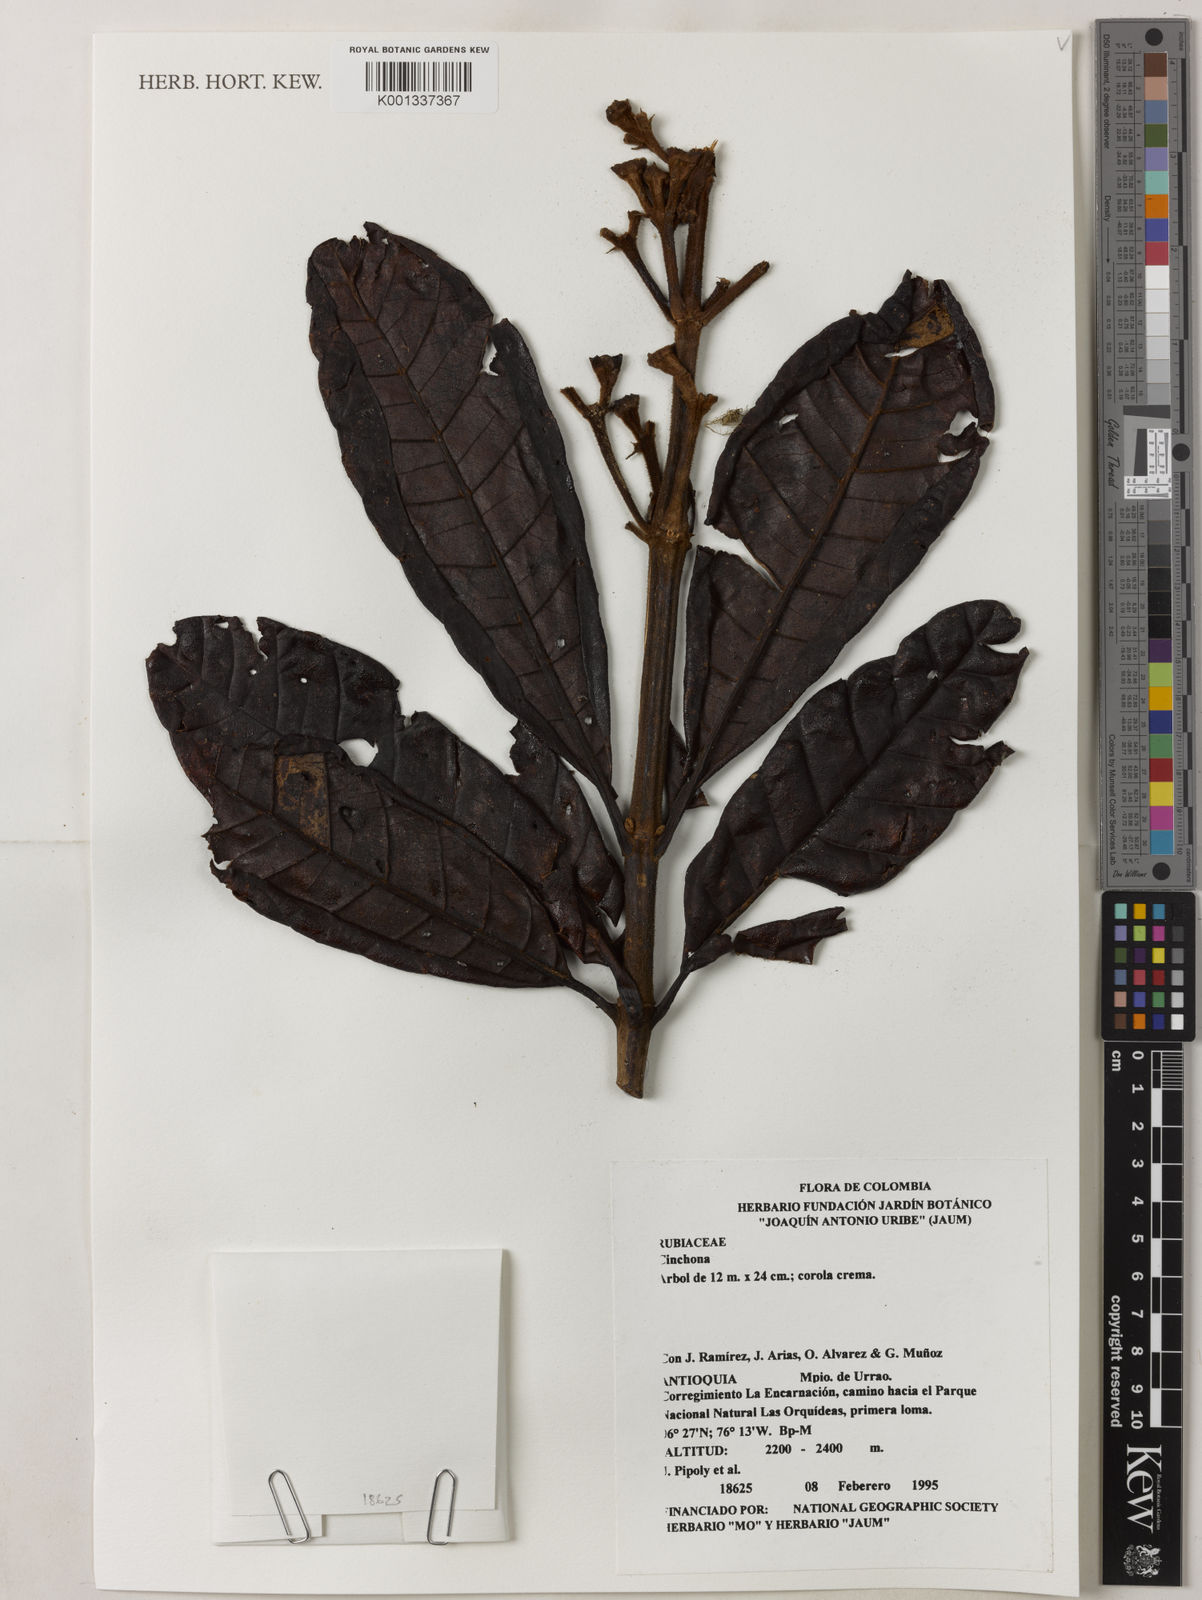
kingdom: Plantae
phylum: Tracheophyta
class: Magnoliopsida
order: Gentianales
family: Rubiaceae
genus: Cinchona
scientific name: Cinchona
